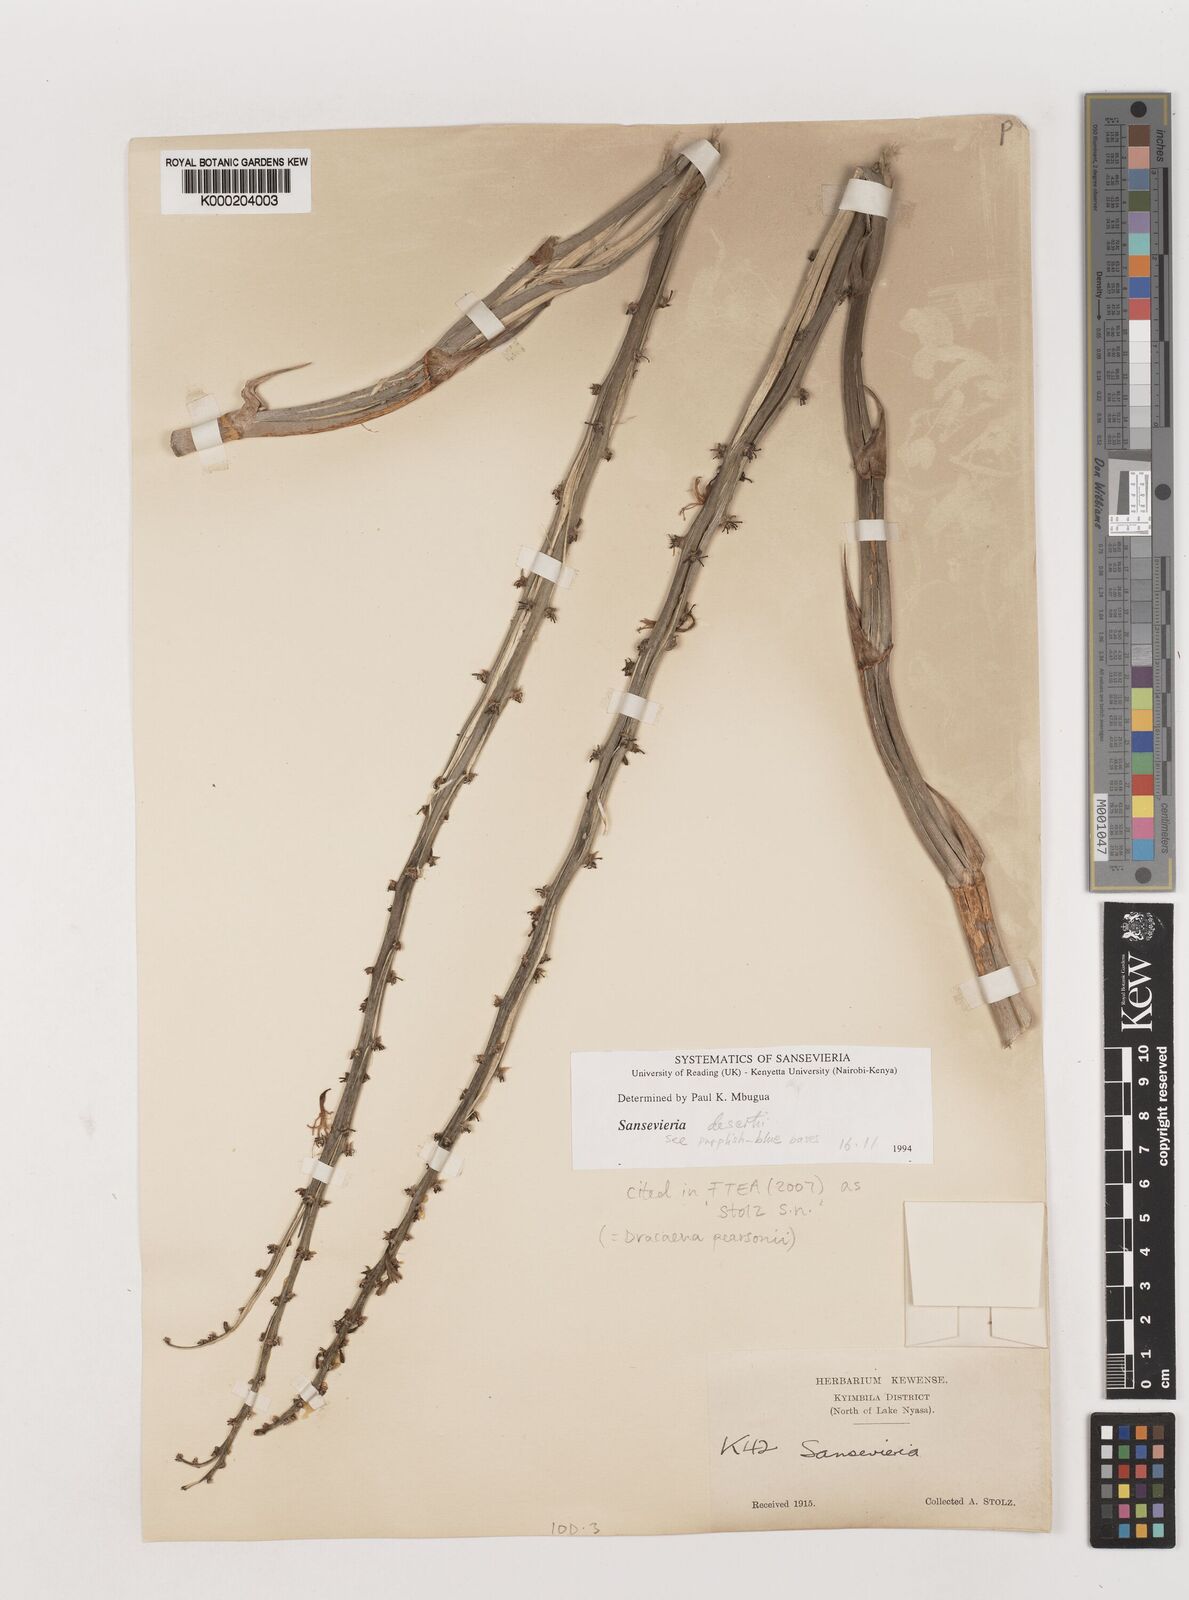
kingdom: Plantae
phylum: Tracheophyta
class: Liliopsida
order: Asparagales
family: Asparagaceae
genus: Dracaena
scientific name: Dracaena pearsonii
